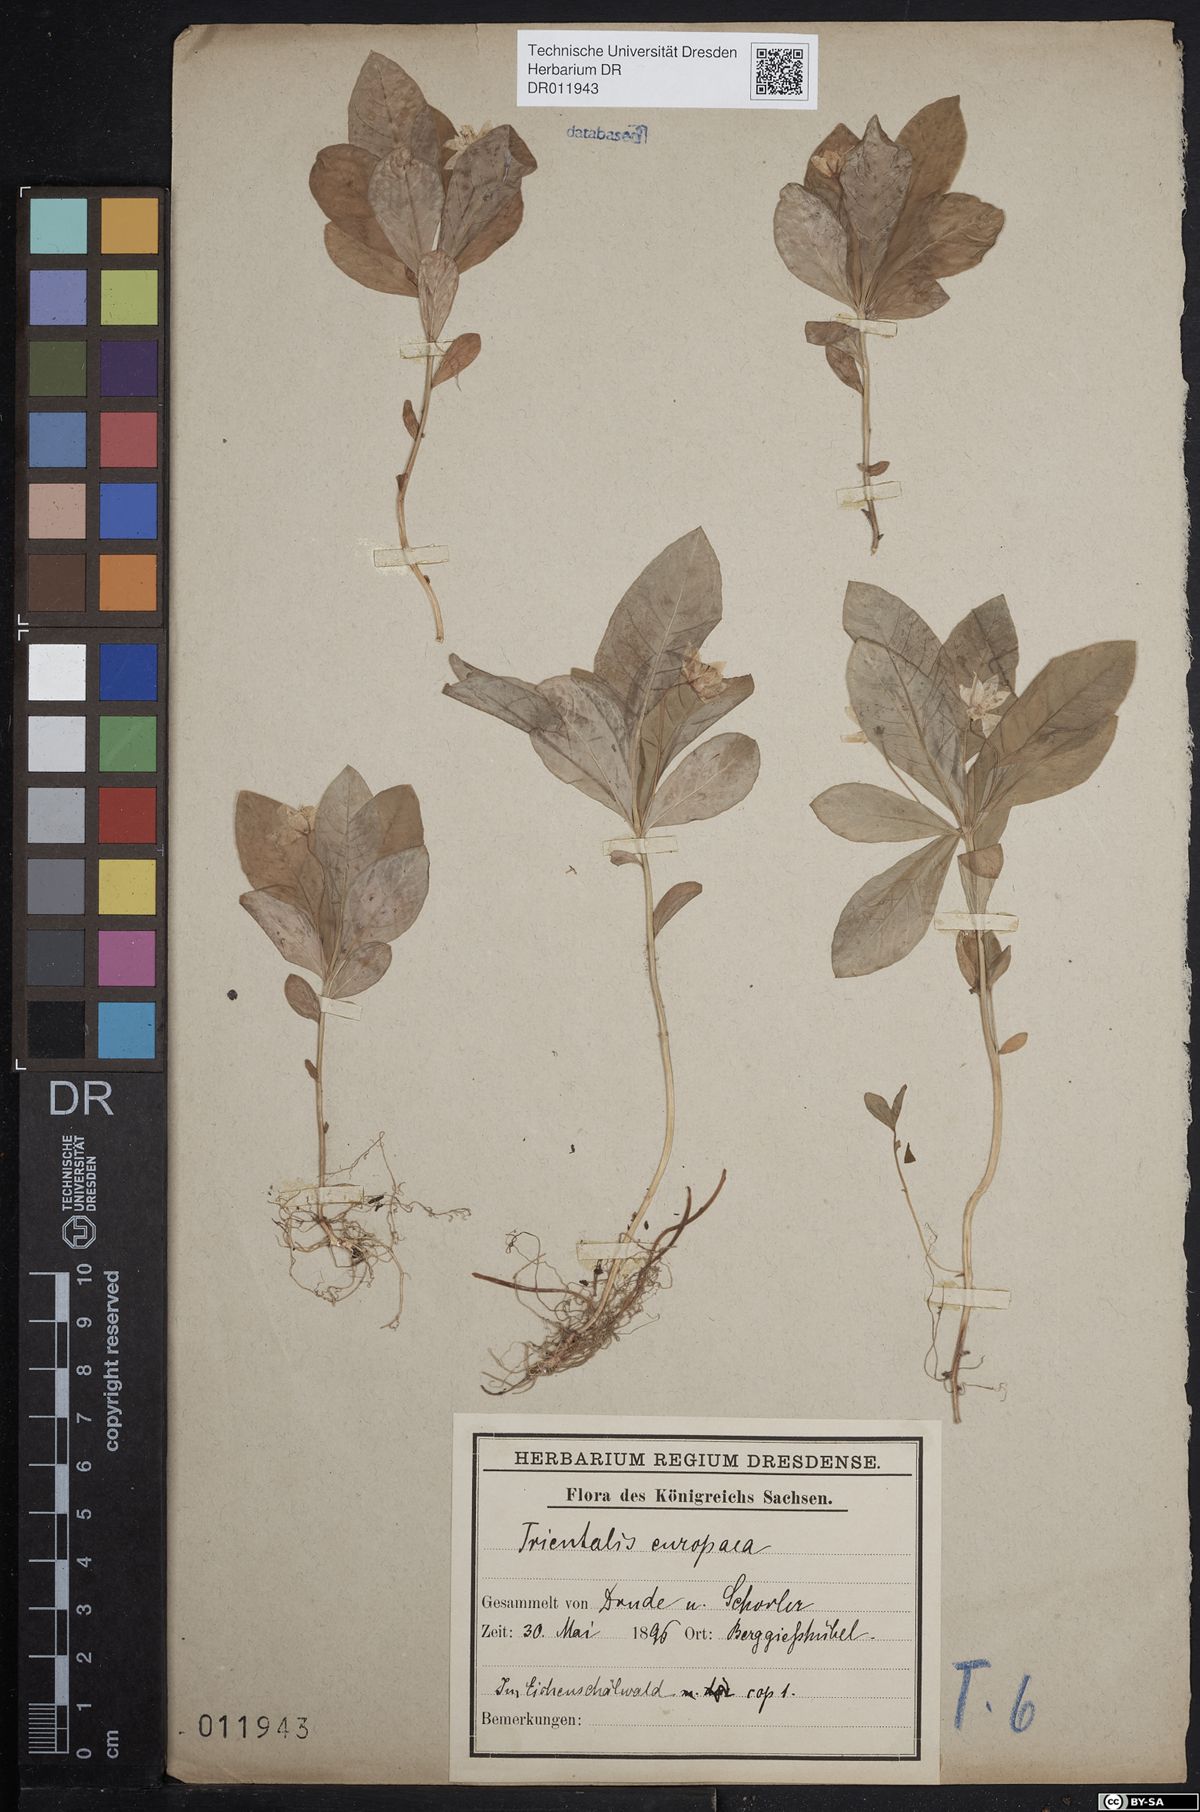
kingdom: Plantae
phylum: Tracheophyta
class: Magnoliopsida
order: Ericales
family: Primulaceae
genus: Lysimachia
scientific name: Lysimachia europaea
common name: Arctic starflower
